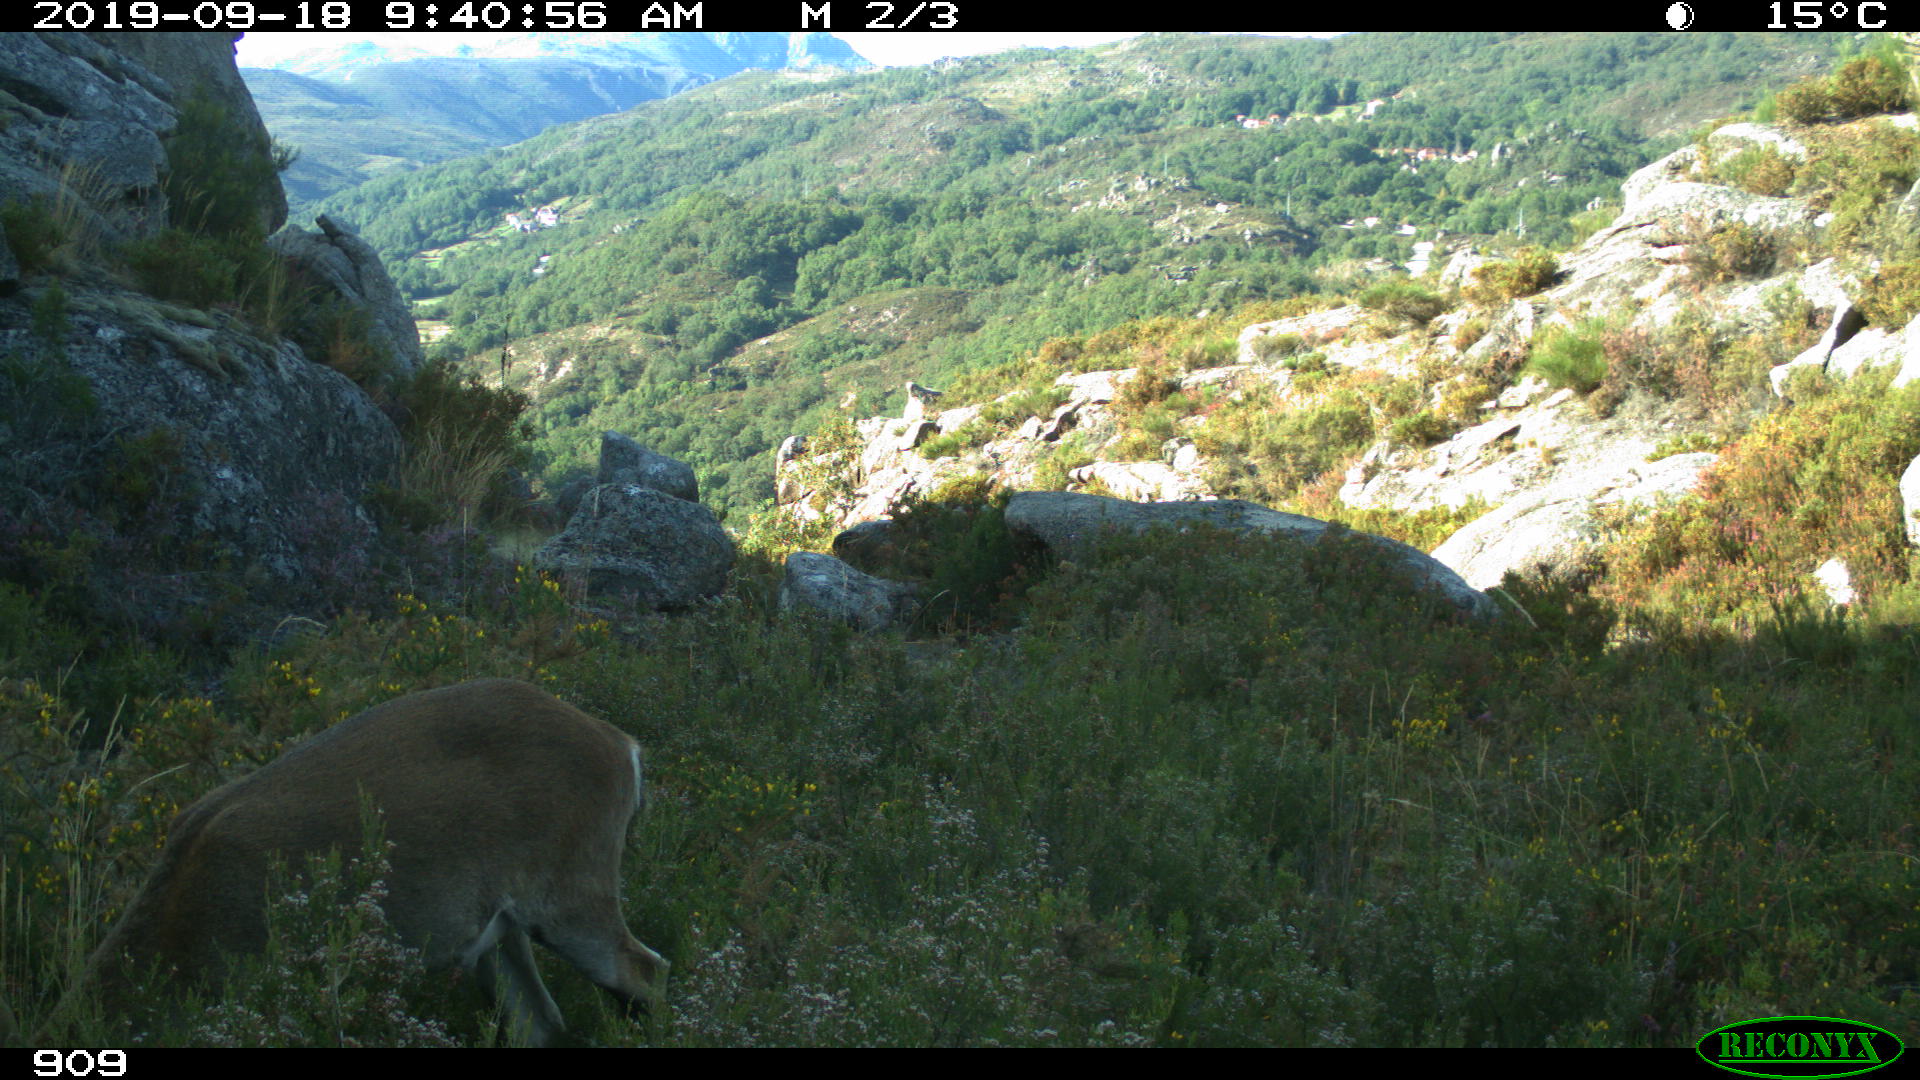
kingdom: Animalia
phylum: Chordata
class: Mammalia
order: Artiodactyla
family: Bovidae
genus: Capra
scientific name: Capra pyrenaica
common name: Spanish ibex
